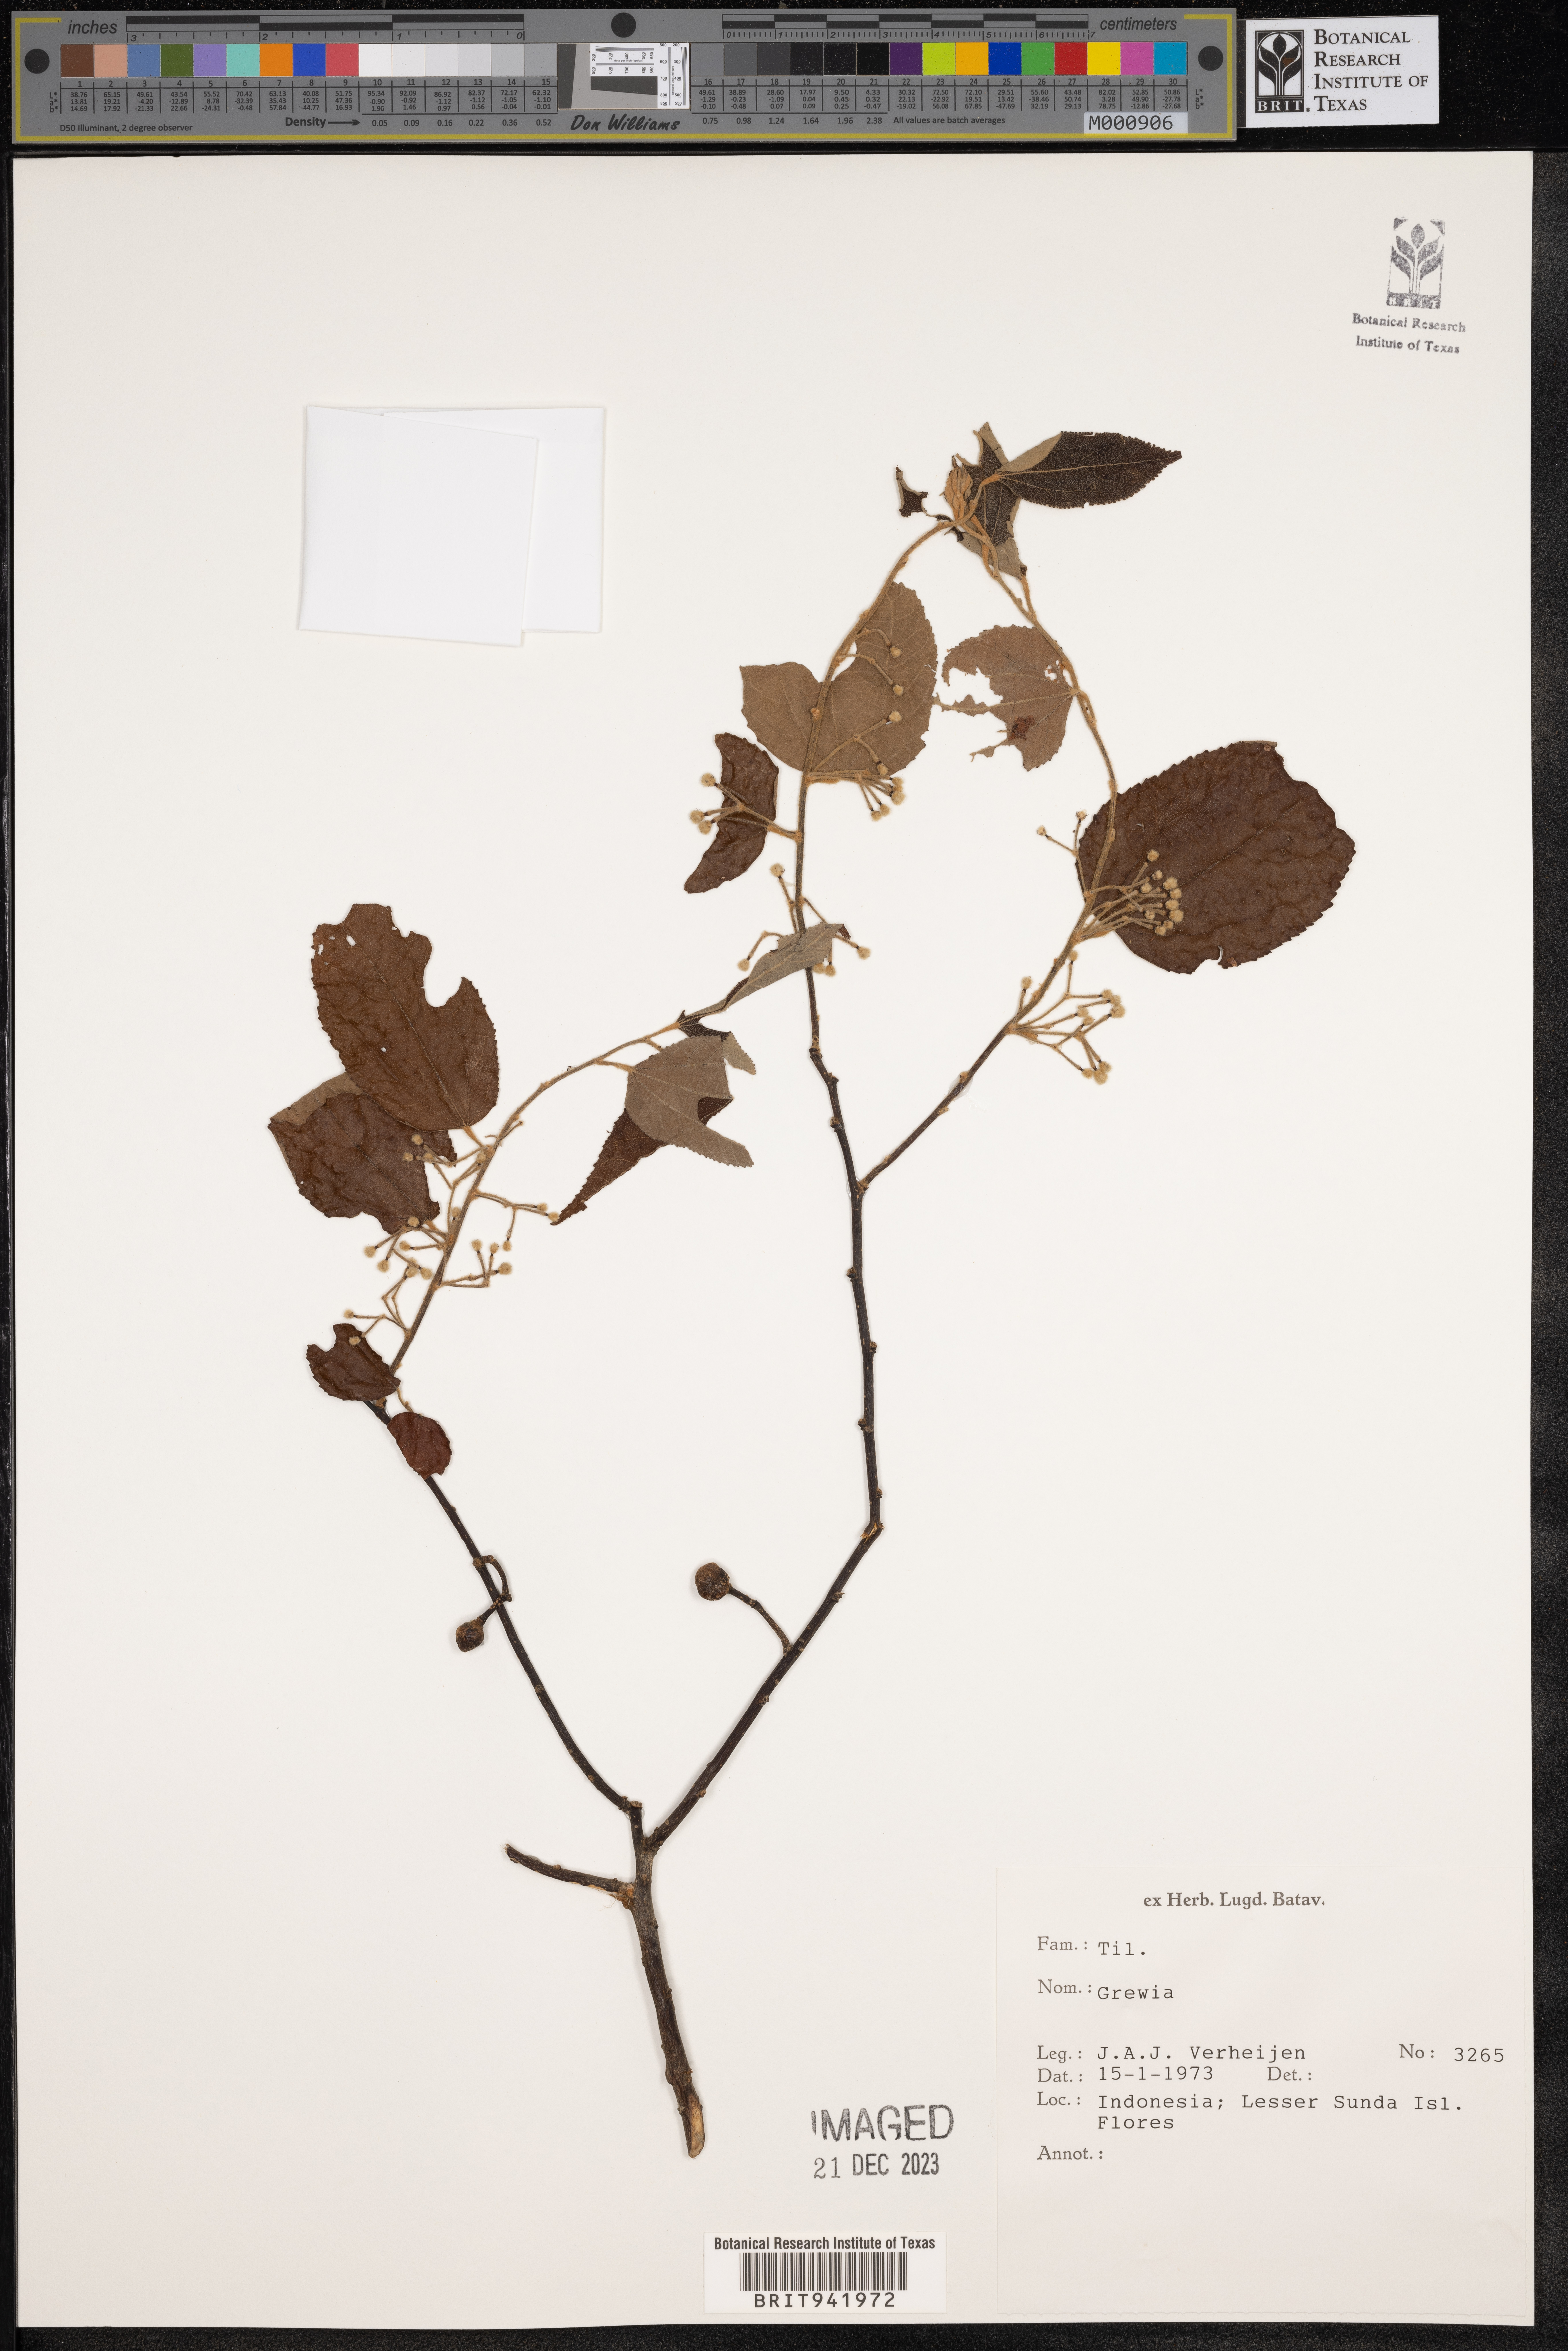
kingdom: Plantae
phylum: Tracheophyta
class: Magnoliopsida
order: Malvales
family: Malvaceae
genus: Grewia
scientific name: Grewia
